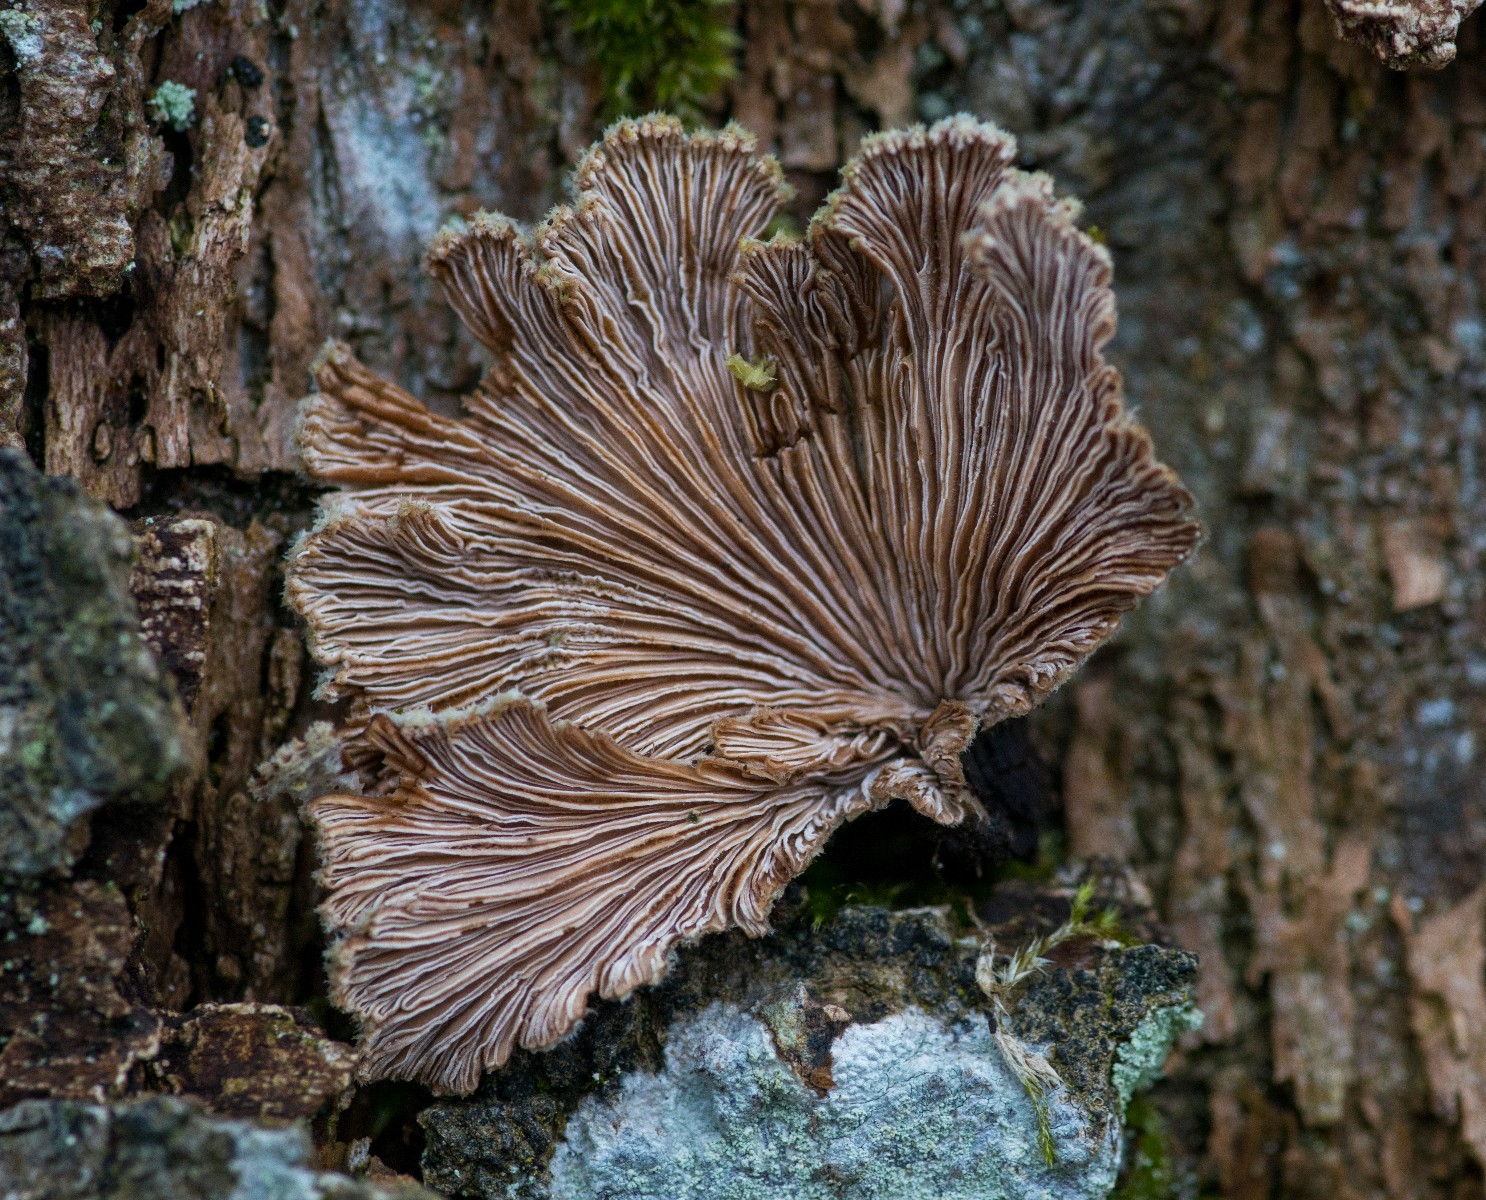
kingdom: Fungi
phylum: Basidiomycota
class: Agaricomycetes
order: Agaricales
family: Schizophyllaceae
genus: Schizophyllum
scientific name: Schizophyllum commune
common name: kløvblad
